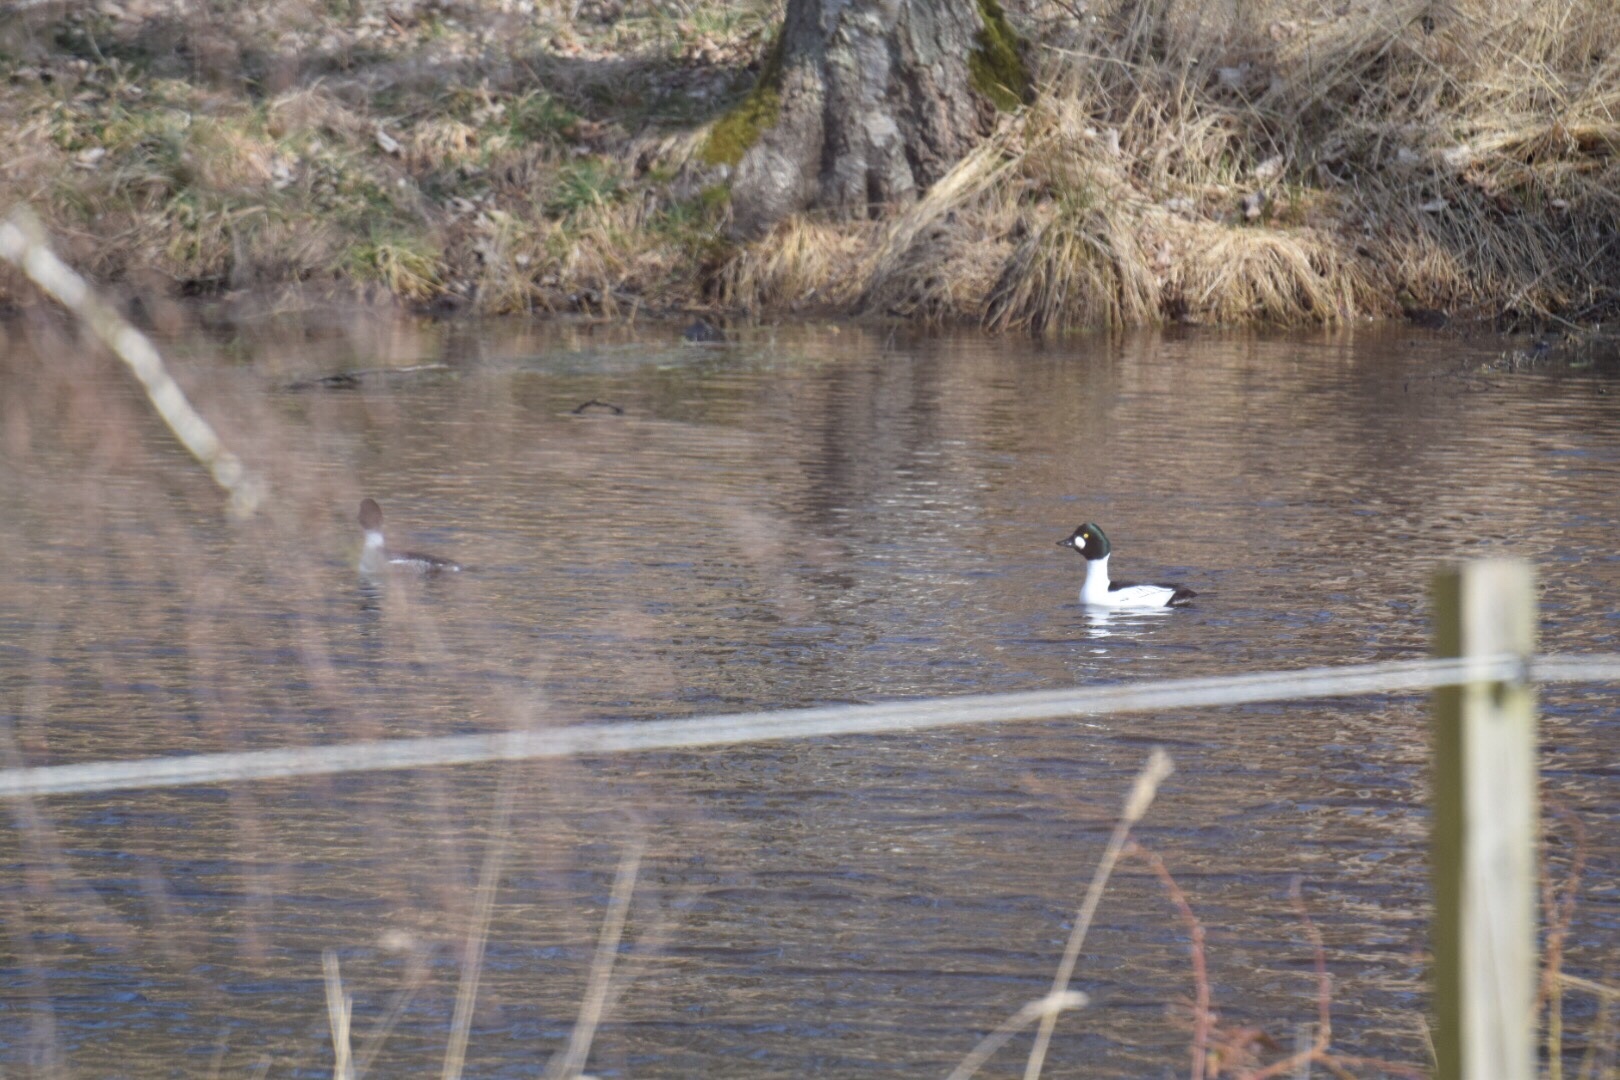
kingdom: Animalia
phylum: Chordata
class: Aves
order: Anseriformes
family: Anatidae
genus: Bucephala
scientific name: Bucephala clangula
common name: Hvinand
